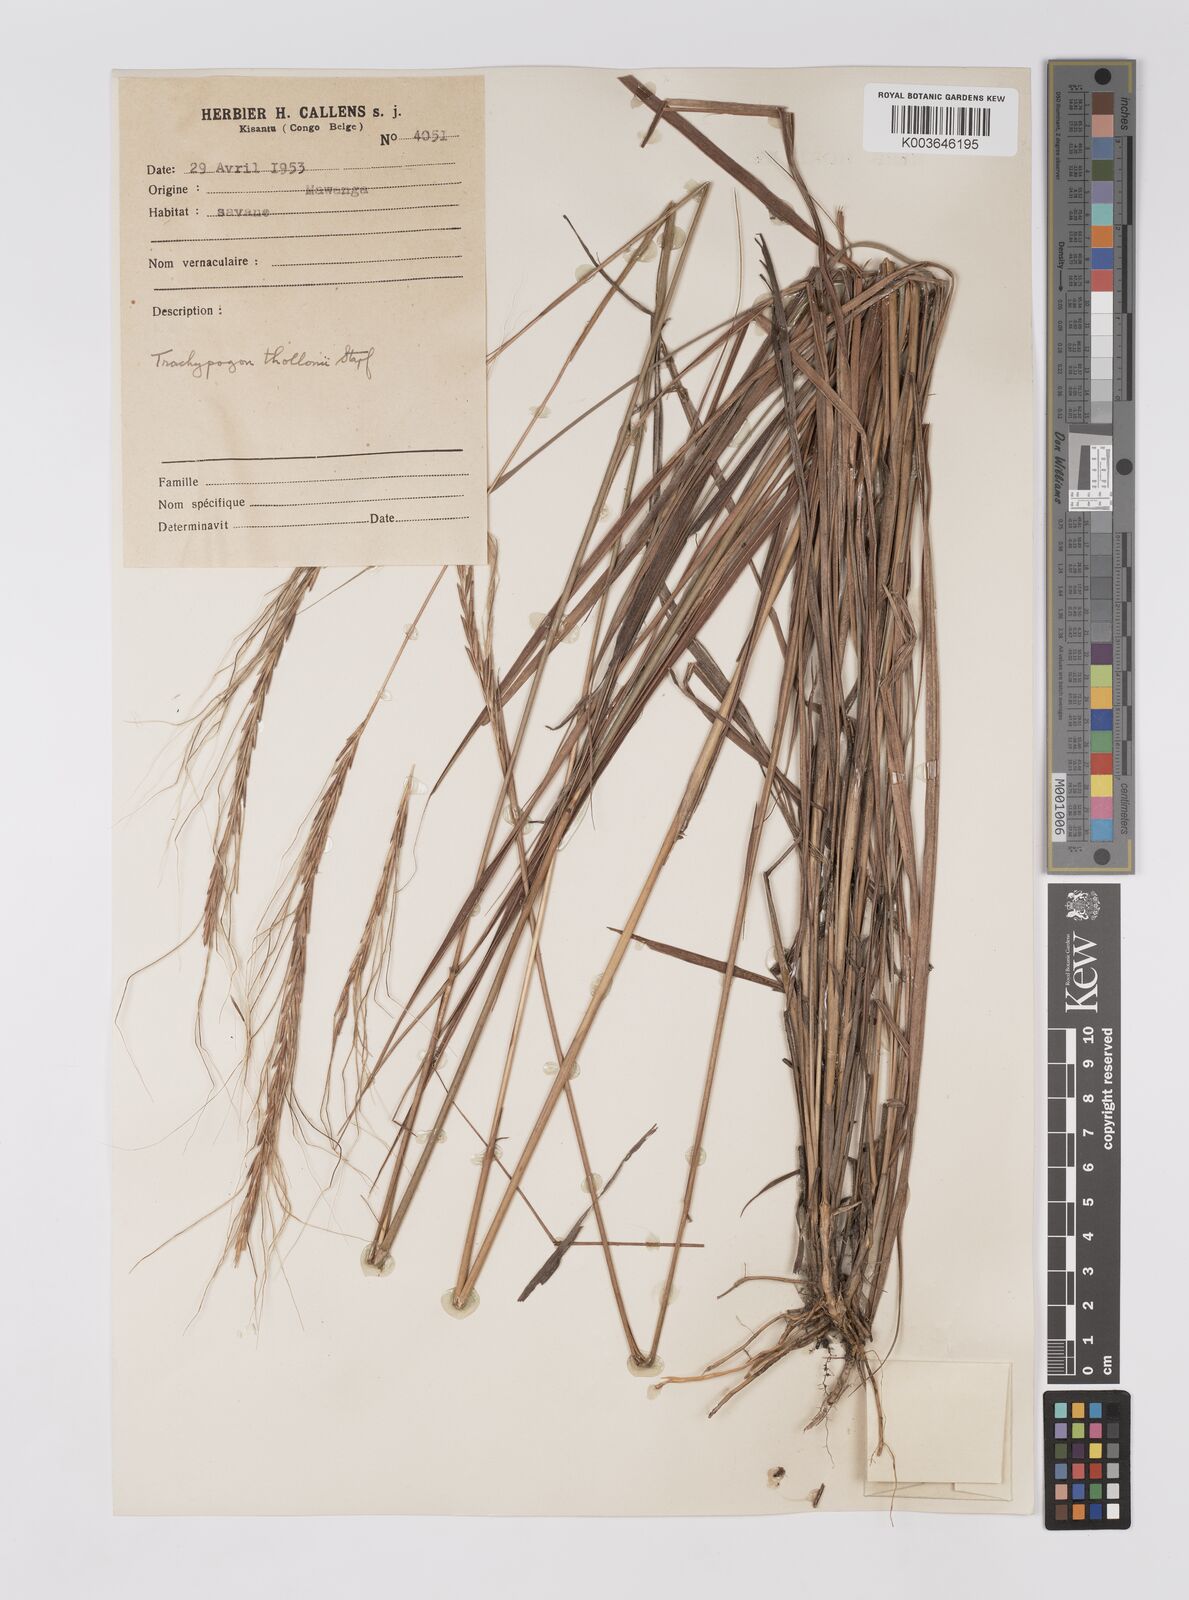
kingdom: Plantae
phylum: Tracheophyta
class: Liliopsida
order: Poales
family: Poaceae
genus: Trachypogon
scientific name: Trachypogon spicatus
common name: Crinkle-awn
